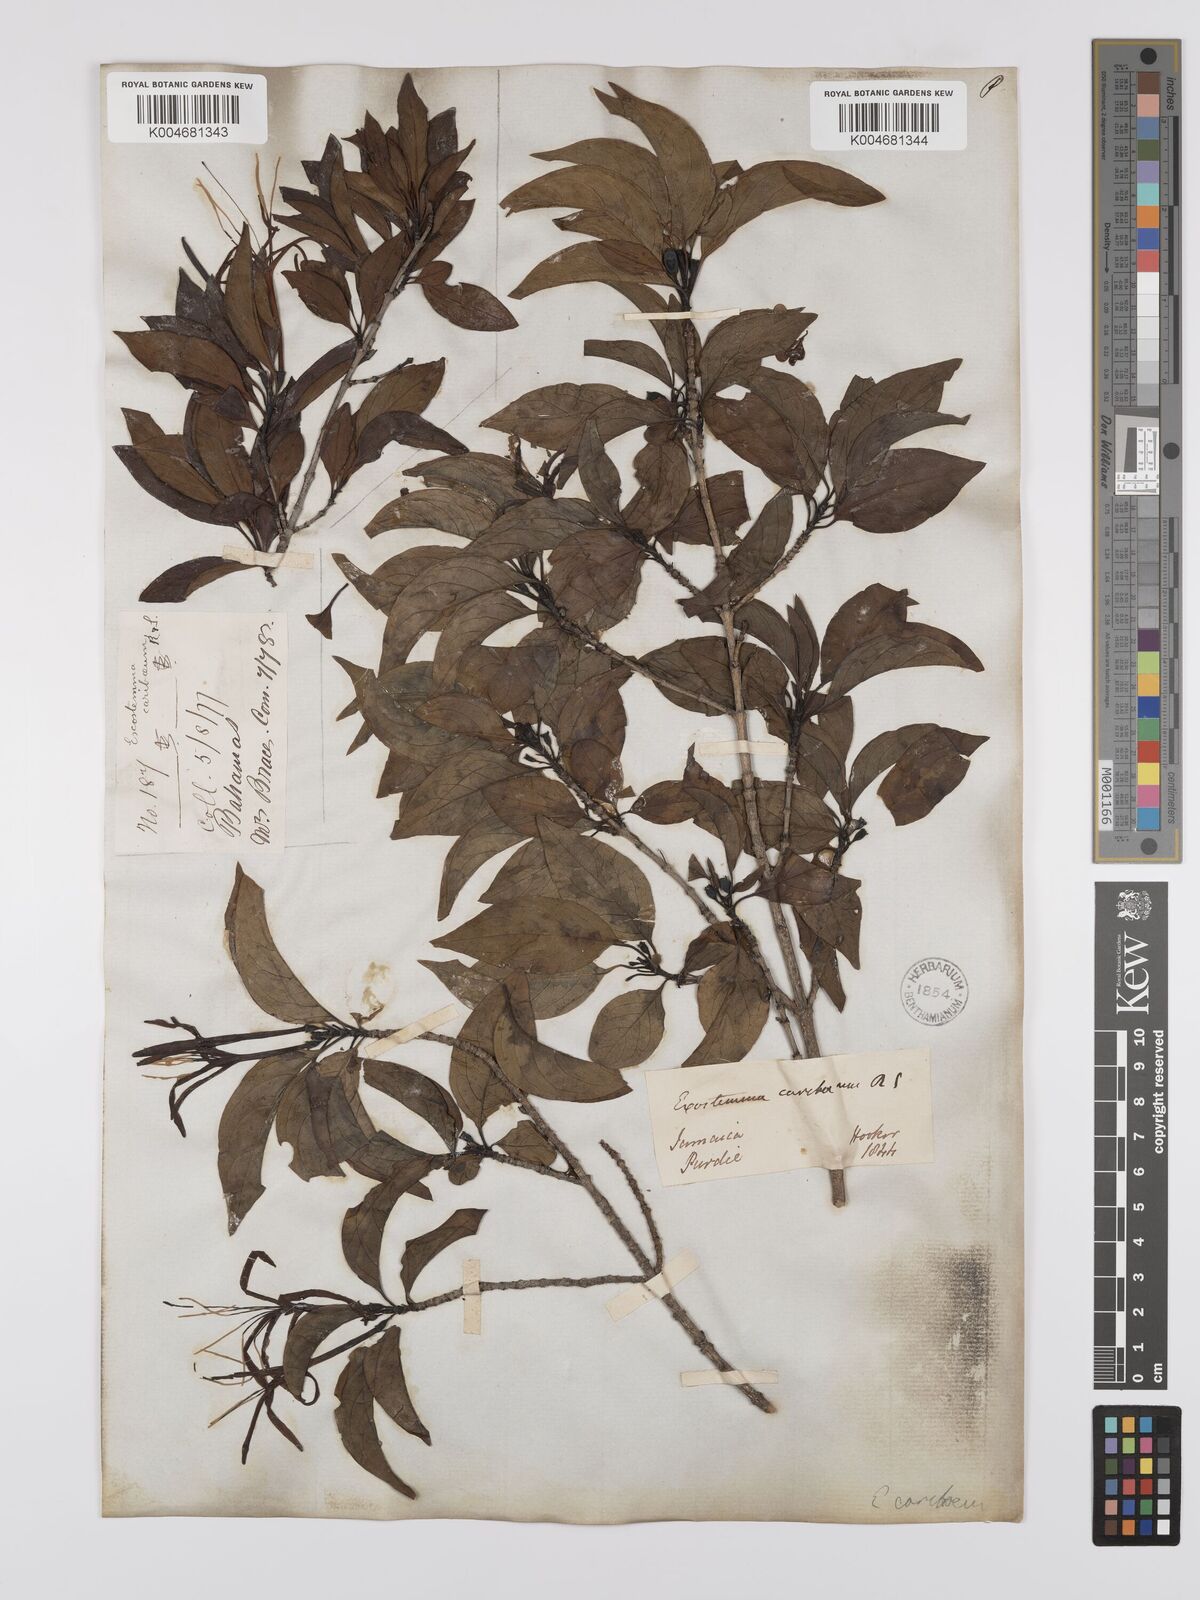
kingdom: Plantae
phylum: Tracheophyta
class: Magnoliopsida
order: Gentianales
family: Rubiaceae
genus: Exostema
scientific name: Exostema caribaeum
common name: Princewood
